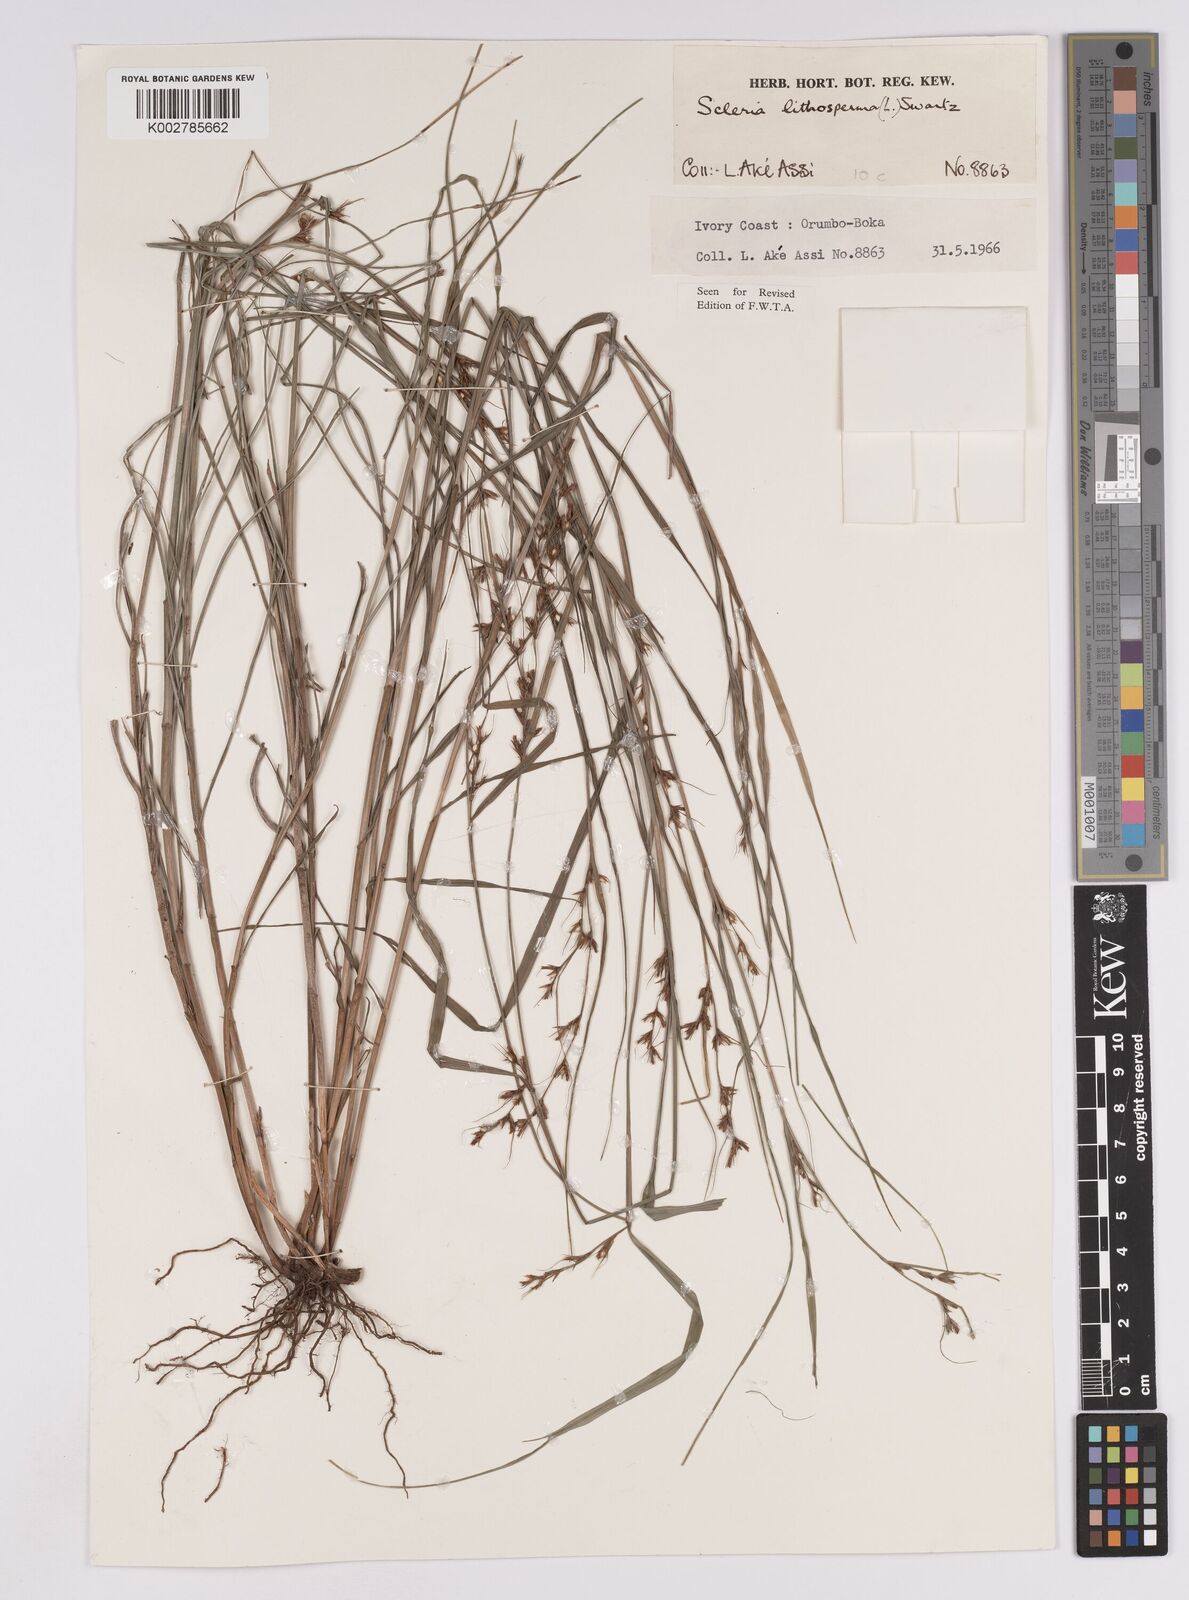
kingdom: Plantae
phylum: Tracheophyta
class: Liliopsida
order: Poales
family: Cyperaceae
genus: Scleria
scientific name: Scleria lithosperma
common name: Florida keys nut-rush
